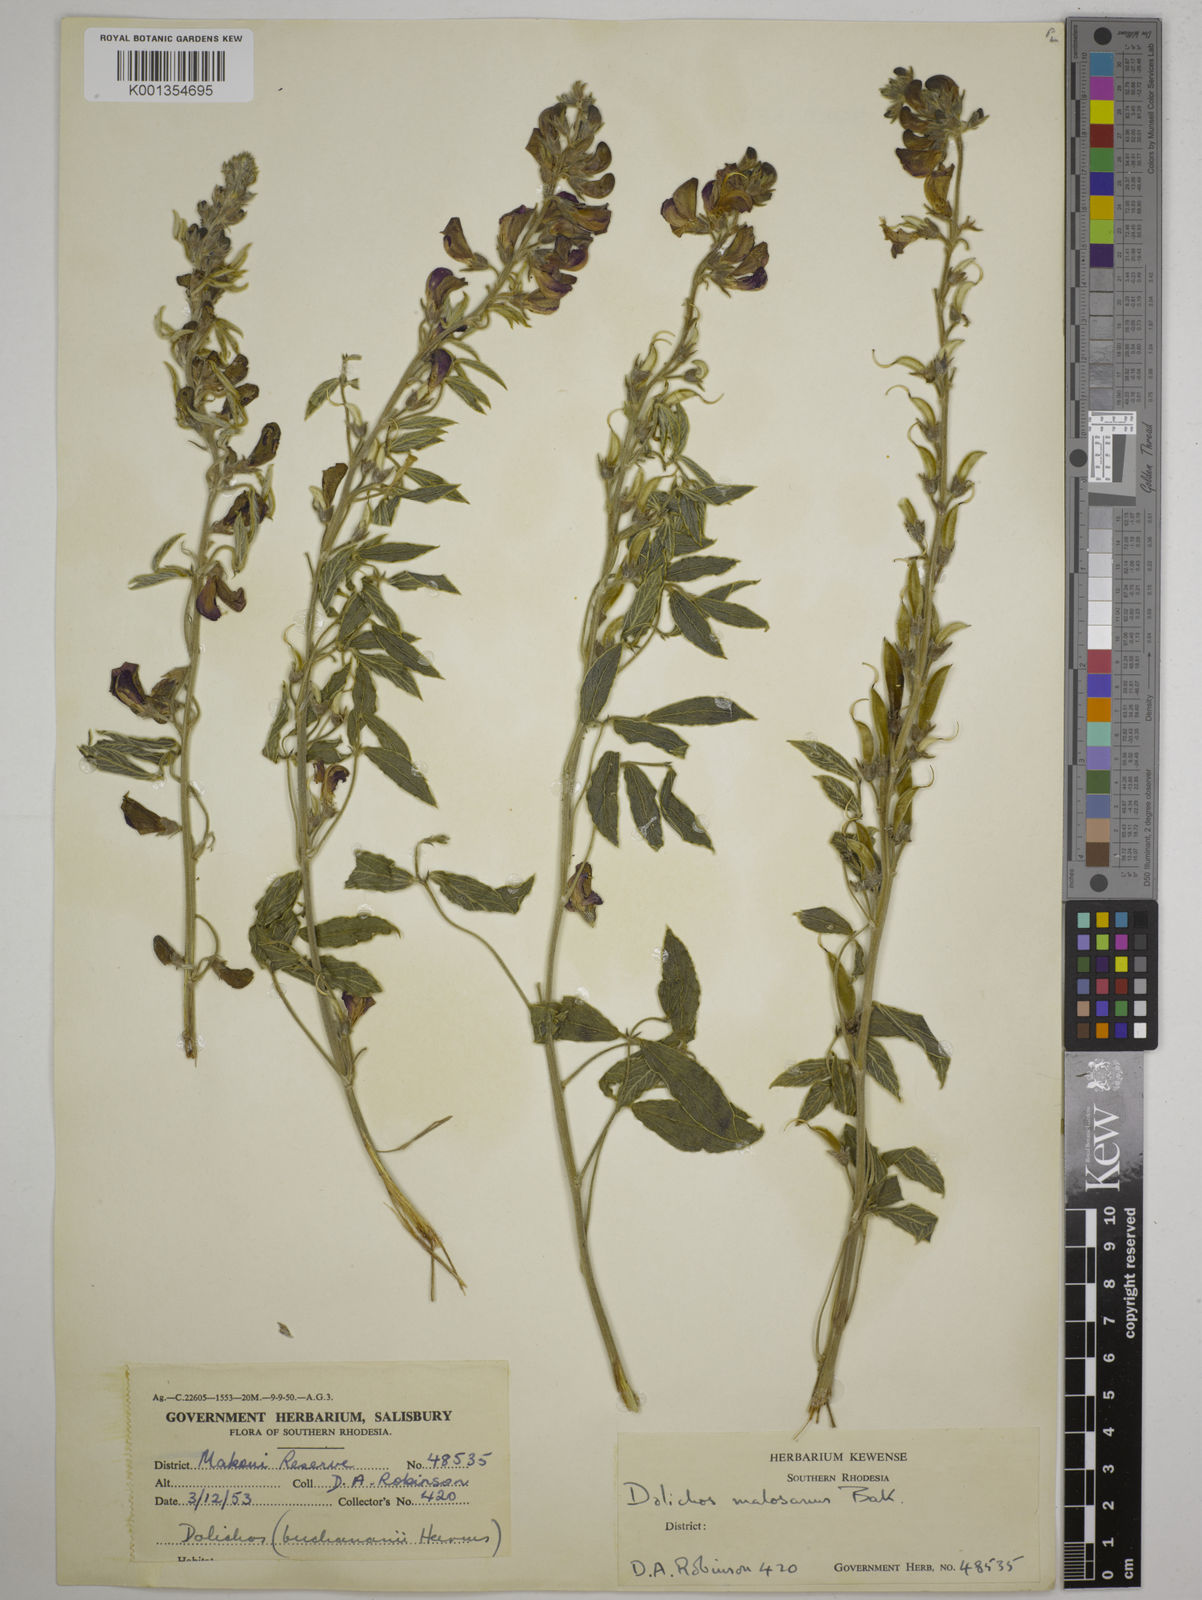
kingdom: Plantae
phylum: Tracheophyta
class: Magnoliopsida
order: Fabales
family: Fabaceae
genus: Dolichos
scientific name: Dolichos kilimandscharicus
